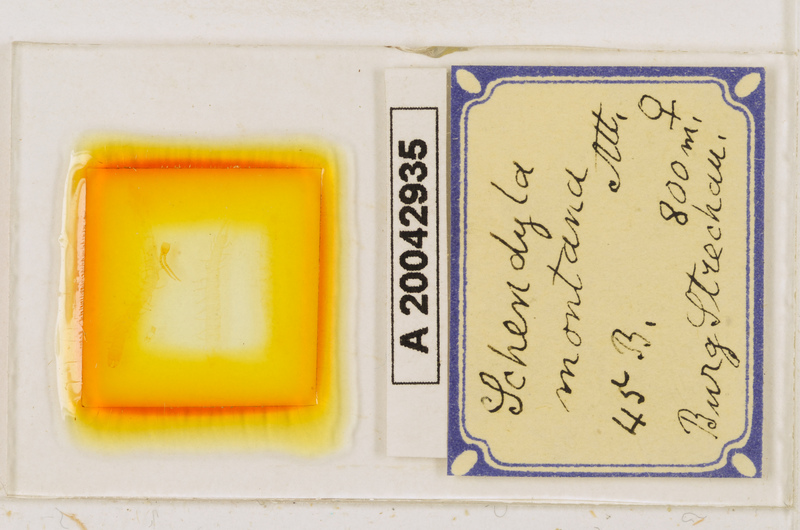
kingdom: Animalia
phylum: Arthropoda
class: Chilopoda
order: Geophilomorpha
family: Schendylidae
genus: Schendyla
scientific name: Schendyla montana
